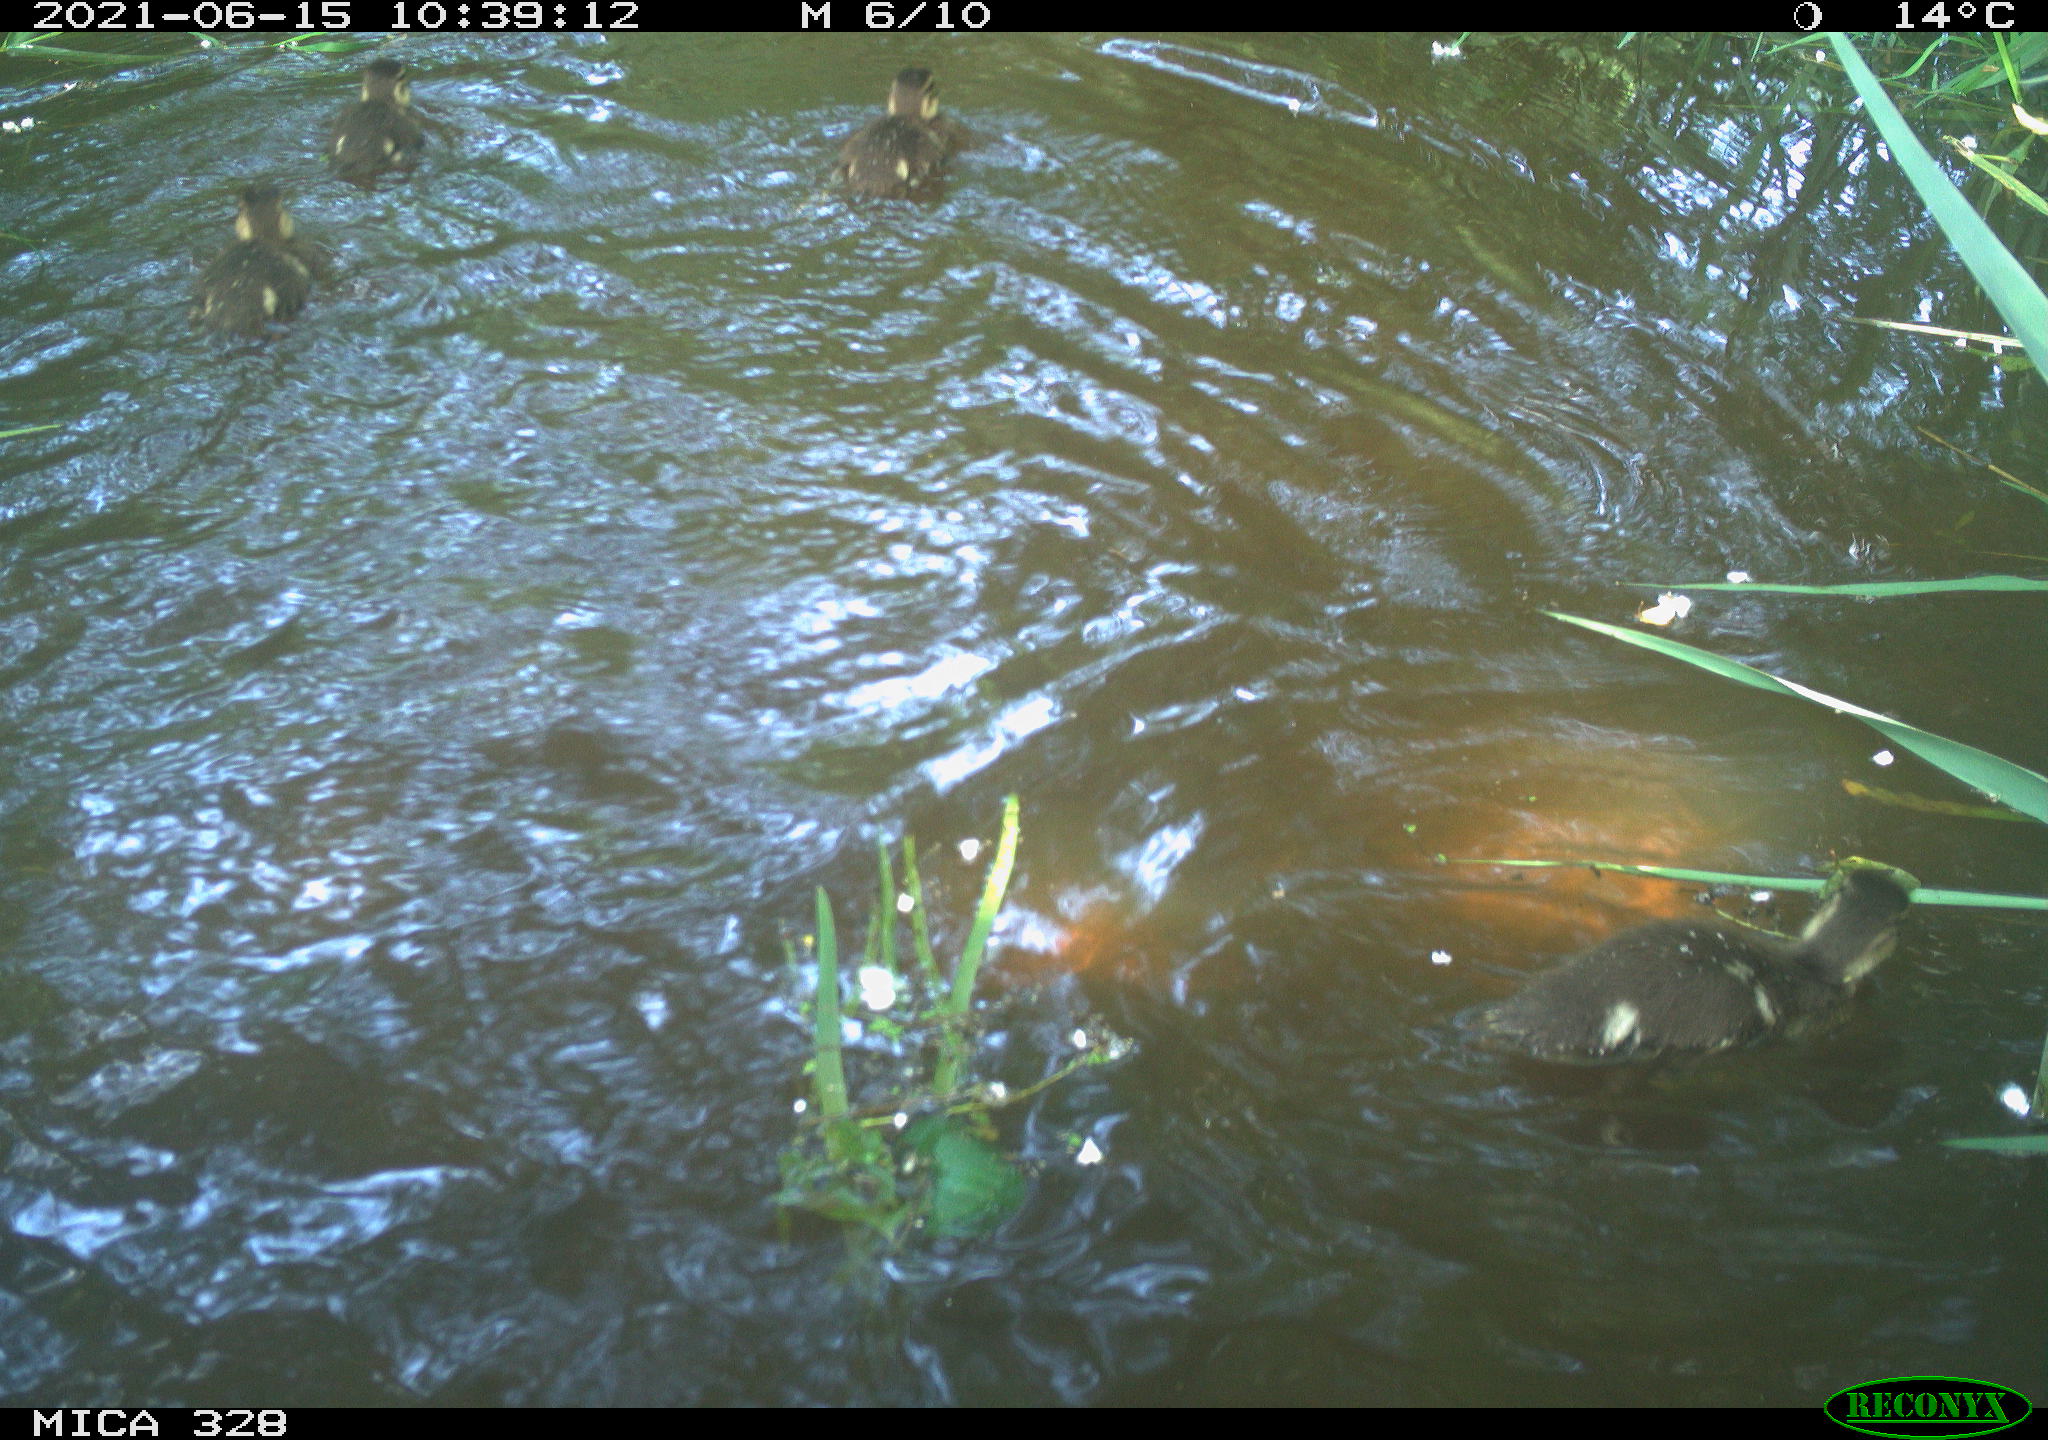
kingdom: Animalia
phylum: Chordata
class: Aves
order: Anseriformes
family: Anatidae
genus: Aix
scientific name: Aix galericulata
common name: Mandarin duck
